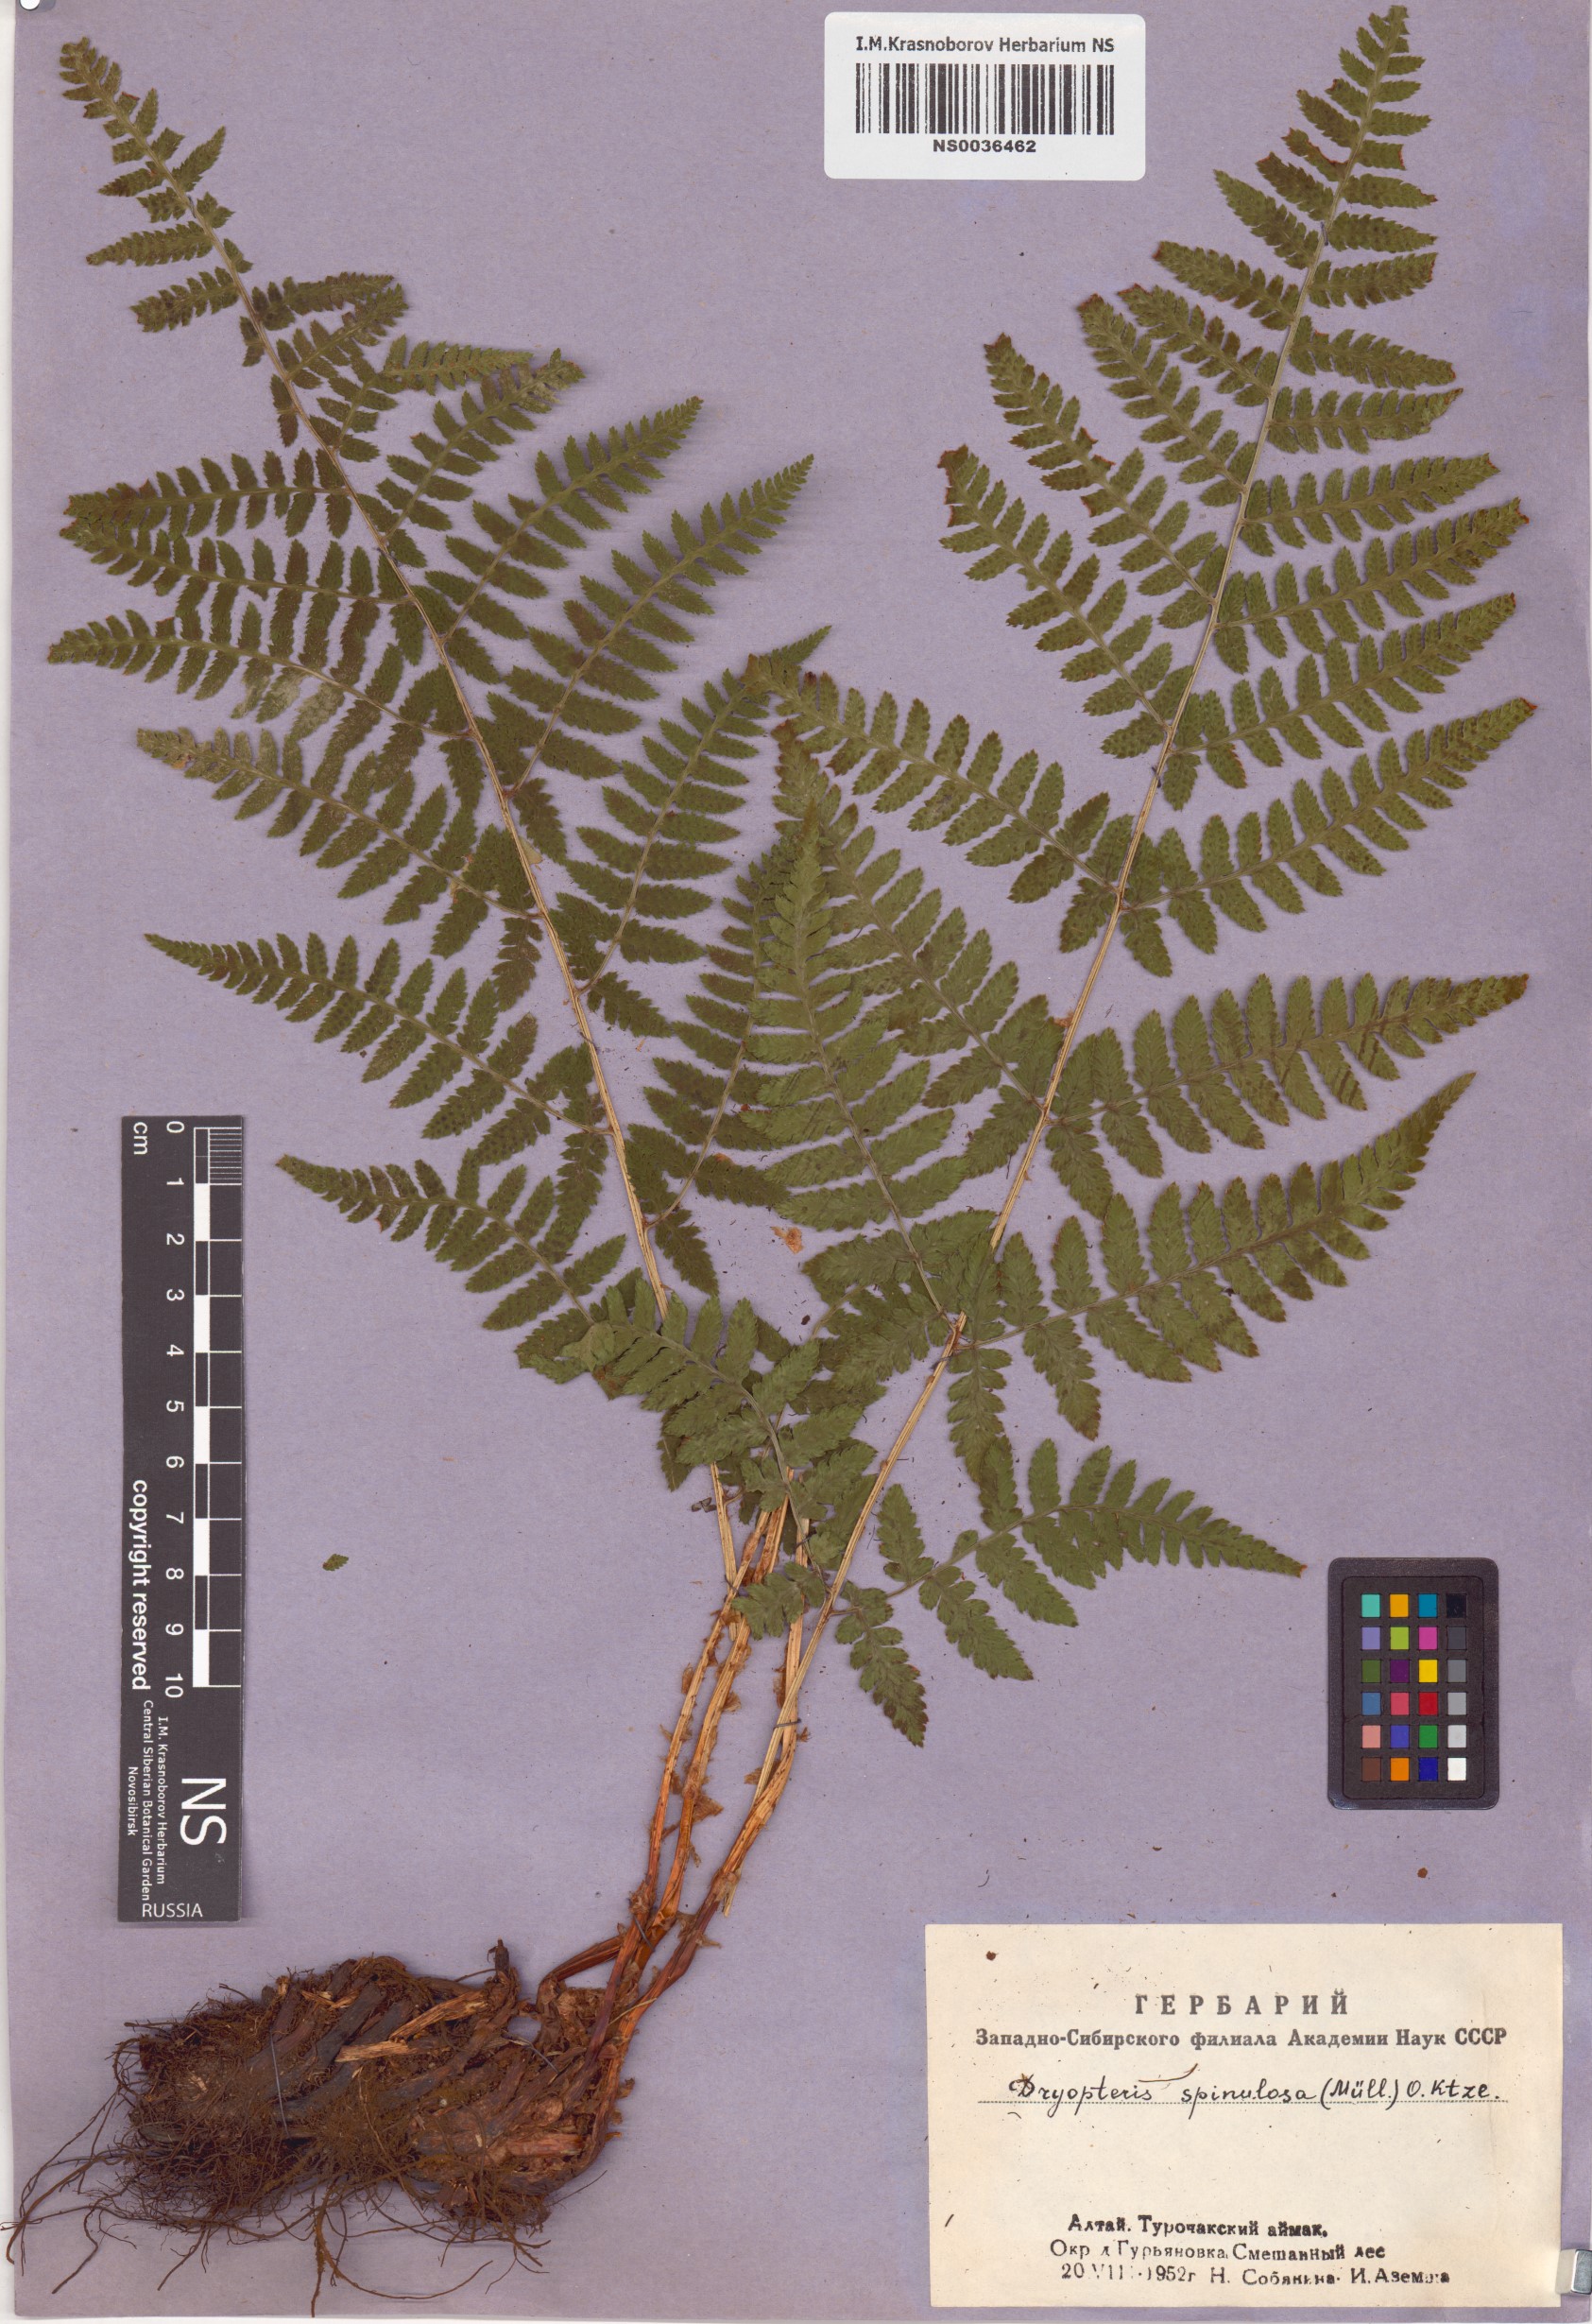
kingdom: Plantae
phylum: Tracheophyta
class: Polypodiopsida
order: Polypodiales
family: Dryopteridaceae
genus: Dryopteris
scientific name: Dryopteris carthusiana
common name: Narrow buckler-fern
